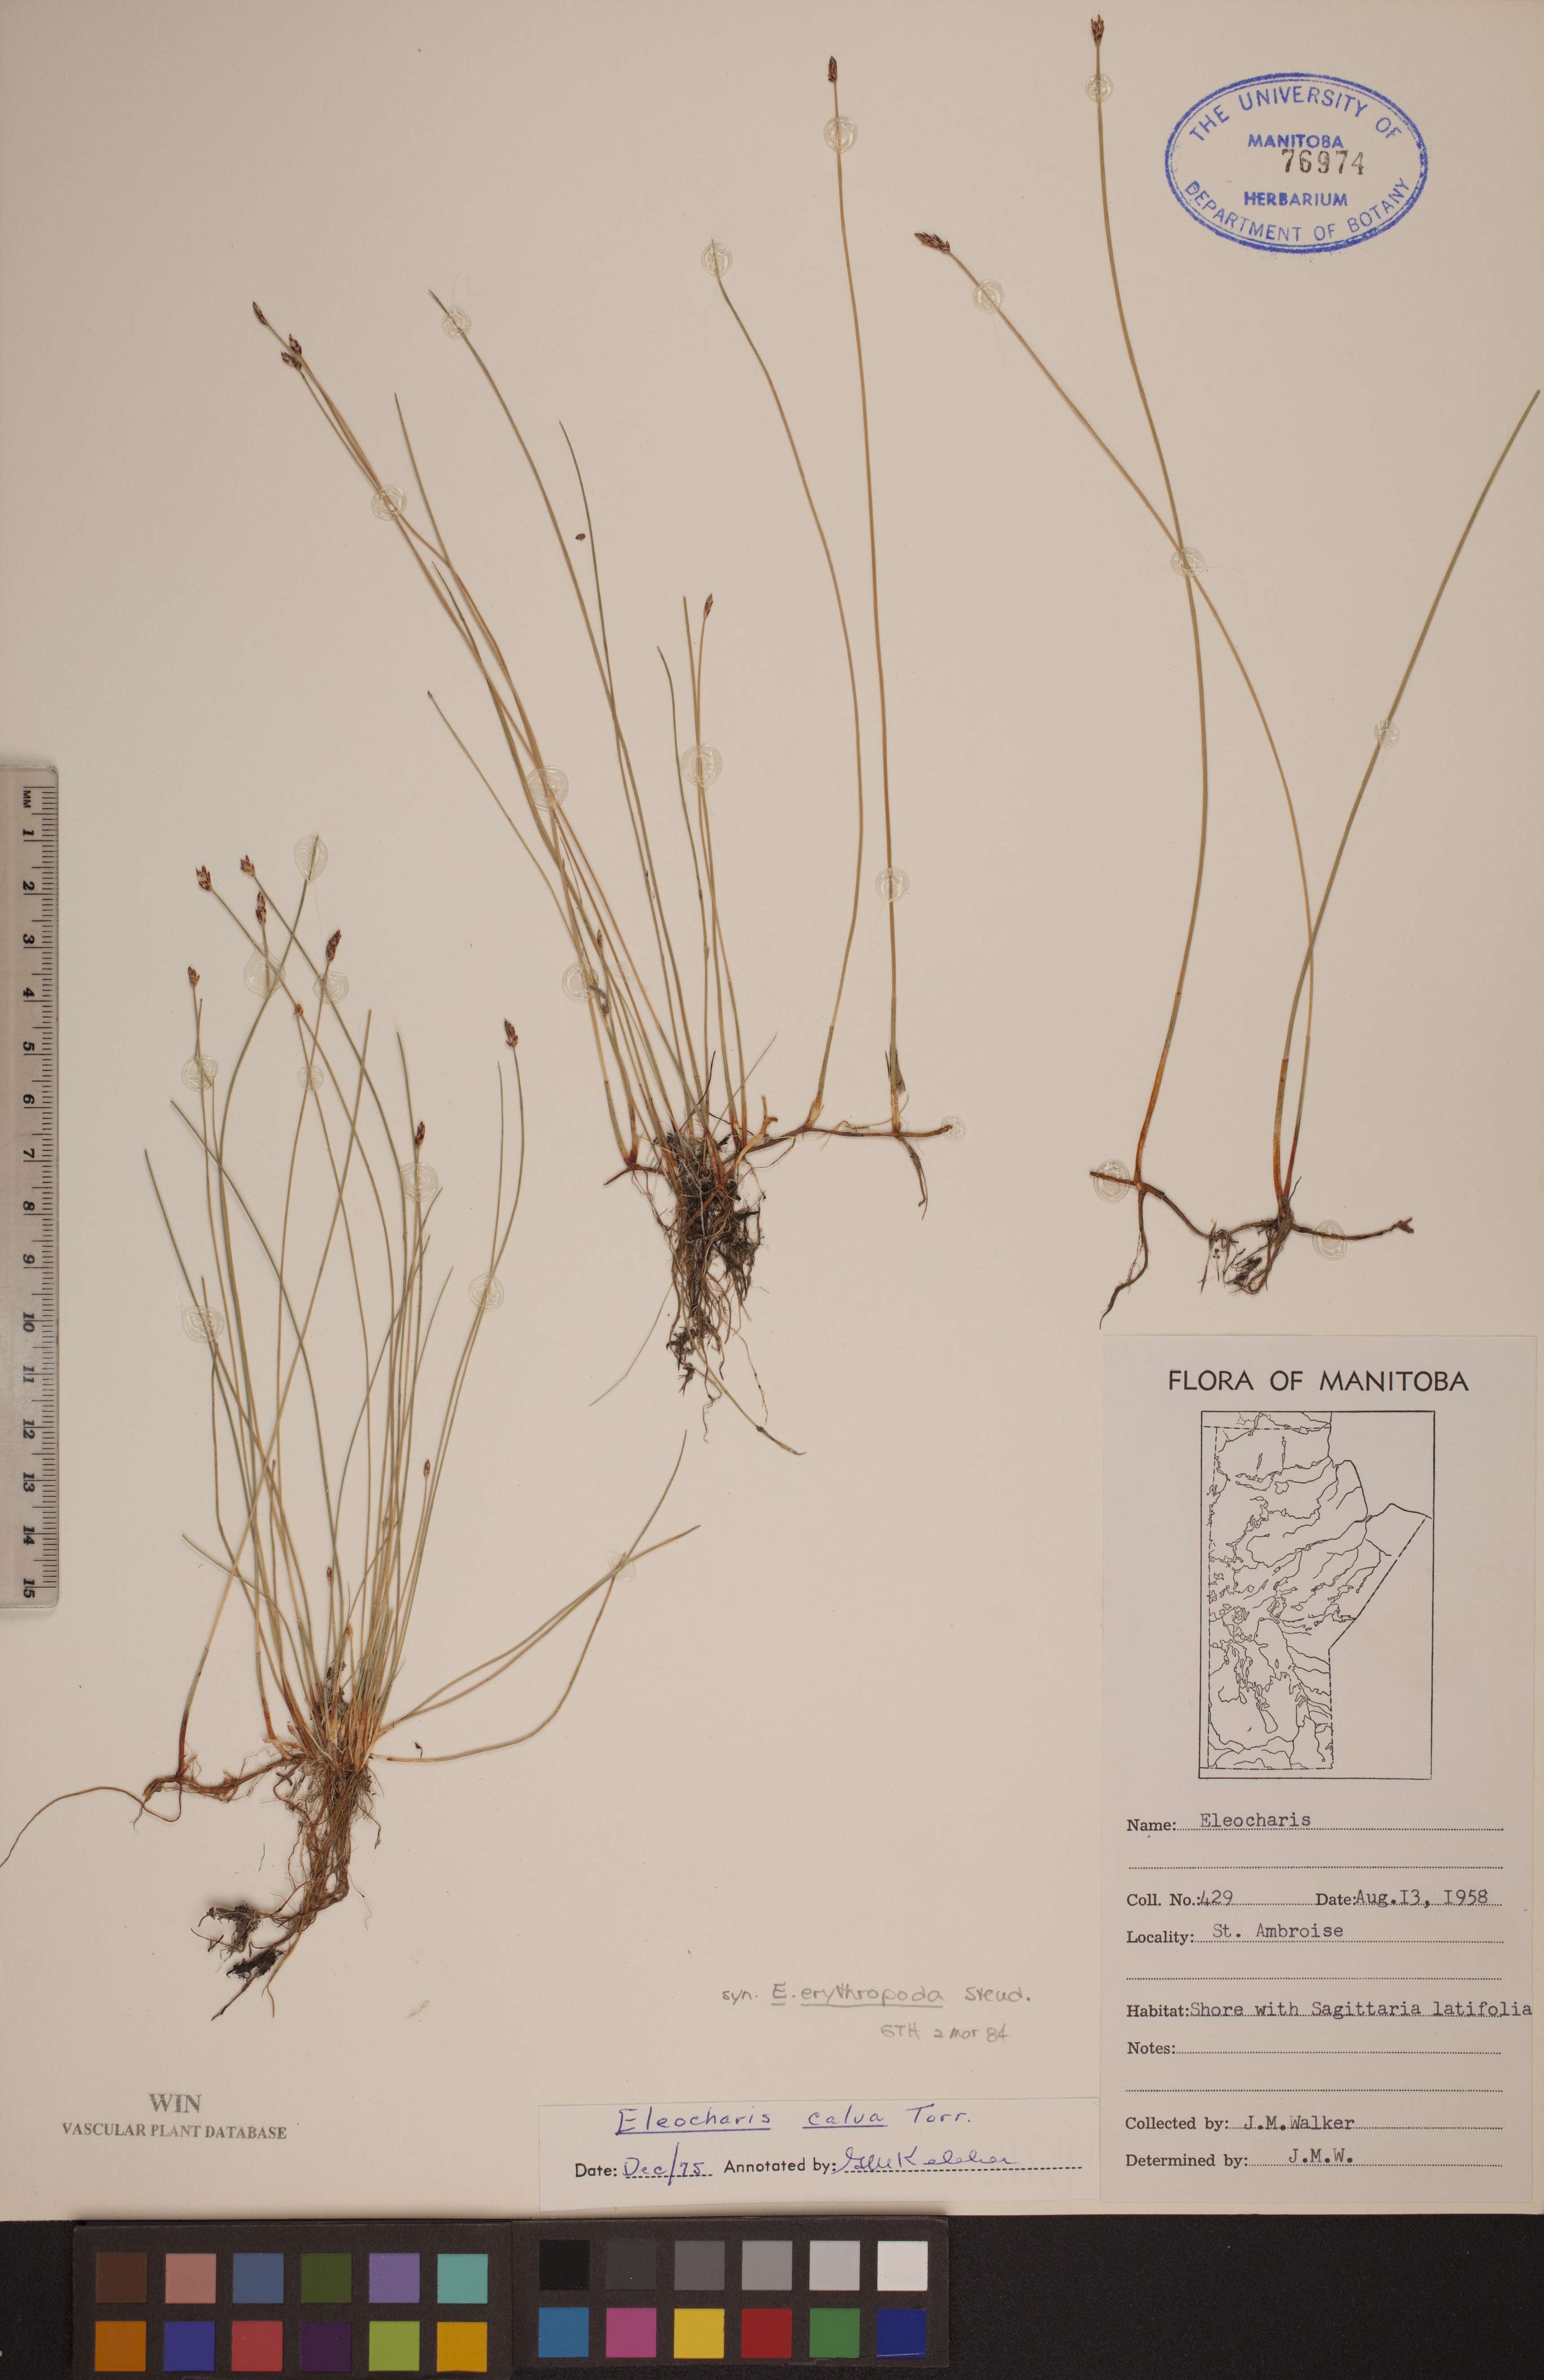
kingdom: Plantae
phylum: Tracheophyta
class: Liliopsida
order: Poales
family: Cyperaceae
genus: Eleocharis
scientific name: Eleocharis erythropoda
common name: Bald spikerush
